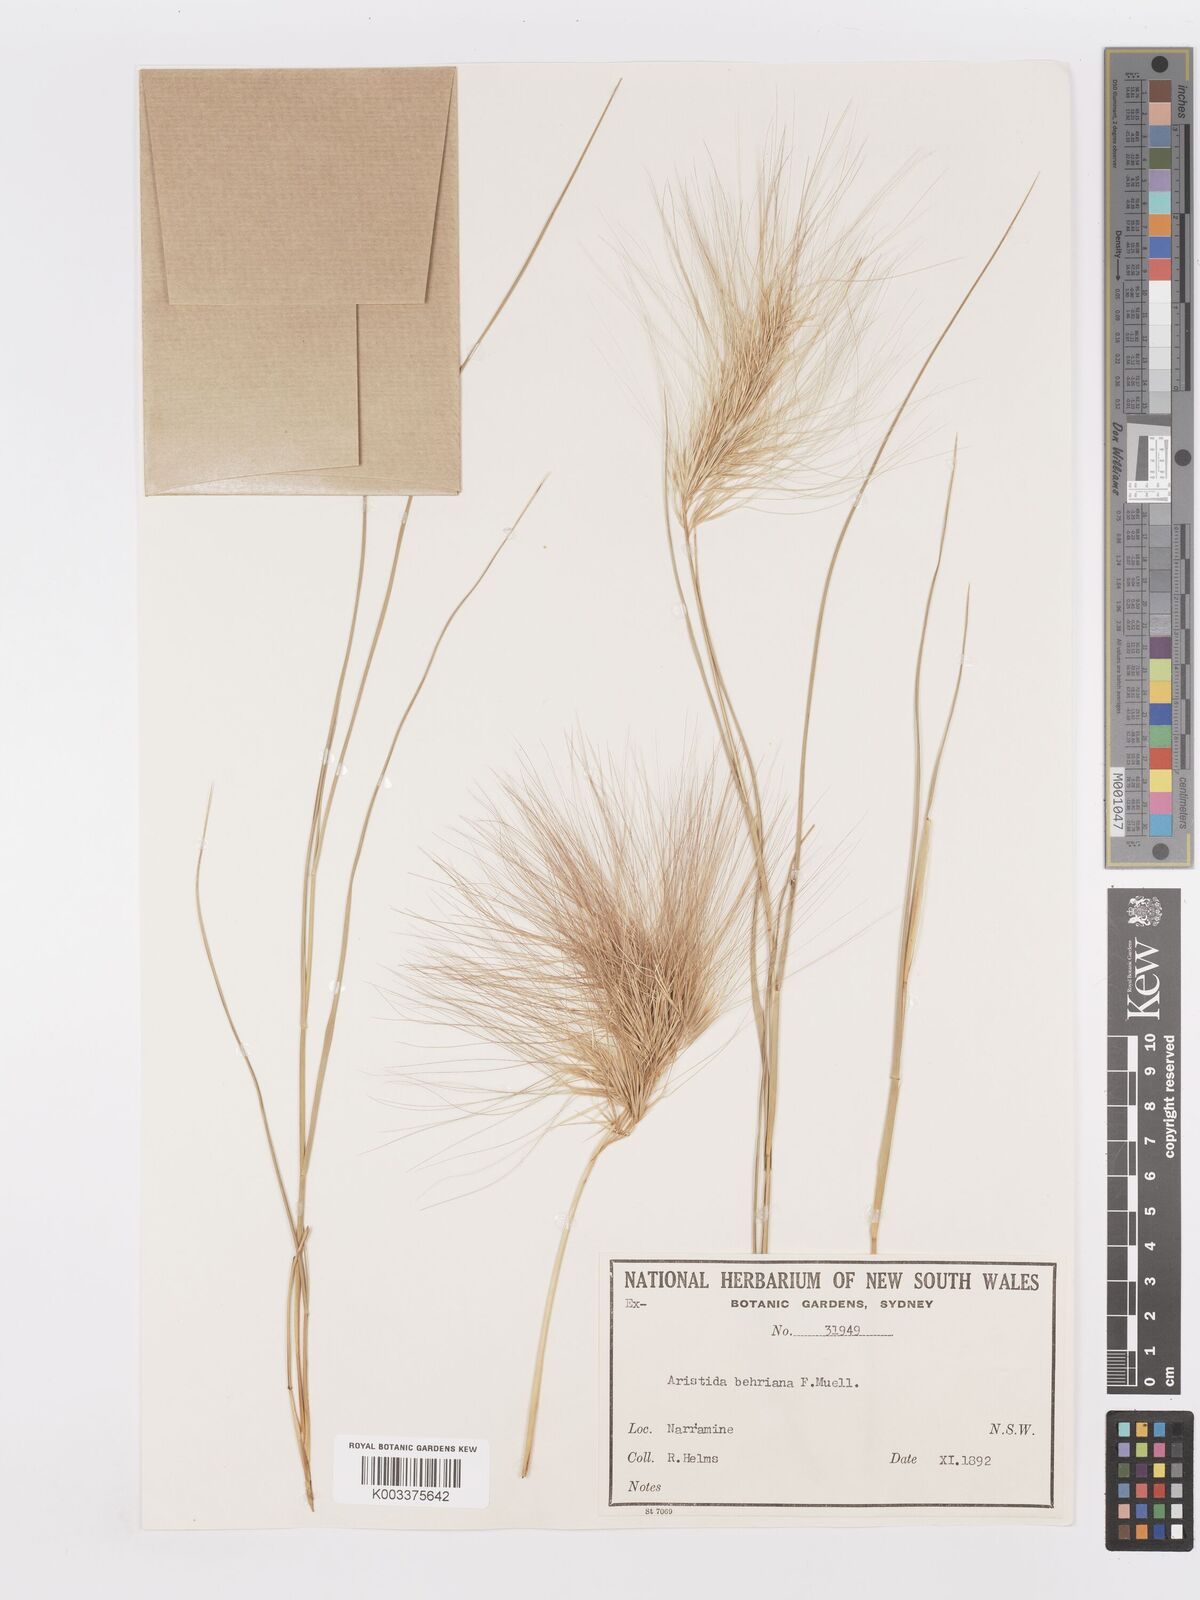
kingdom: Plantae
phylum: Tracheophyta
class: Liliopsida
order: Poales
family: Poaceae
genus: Aristida
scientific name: Aristida behriana
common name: Long-awn wire grass
